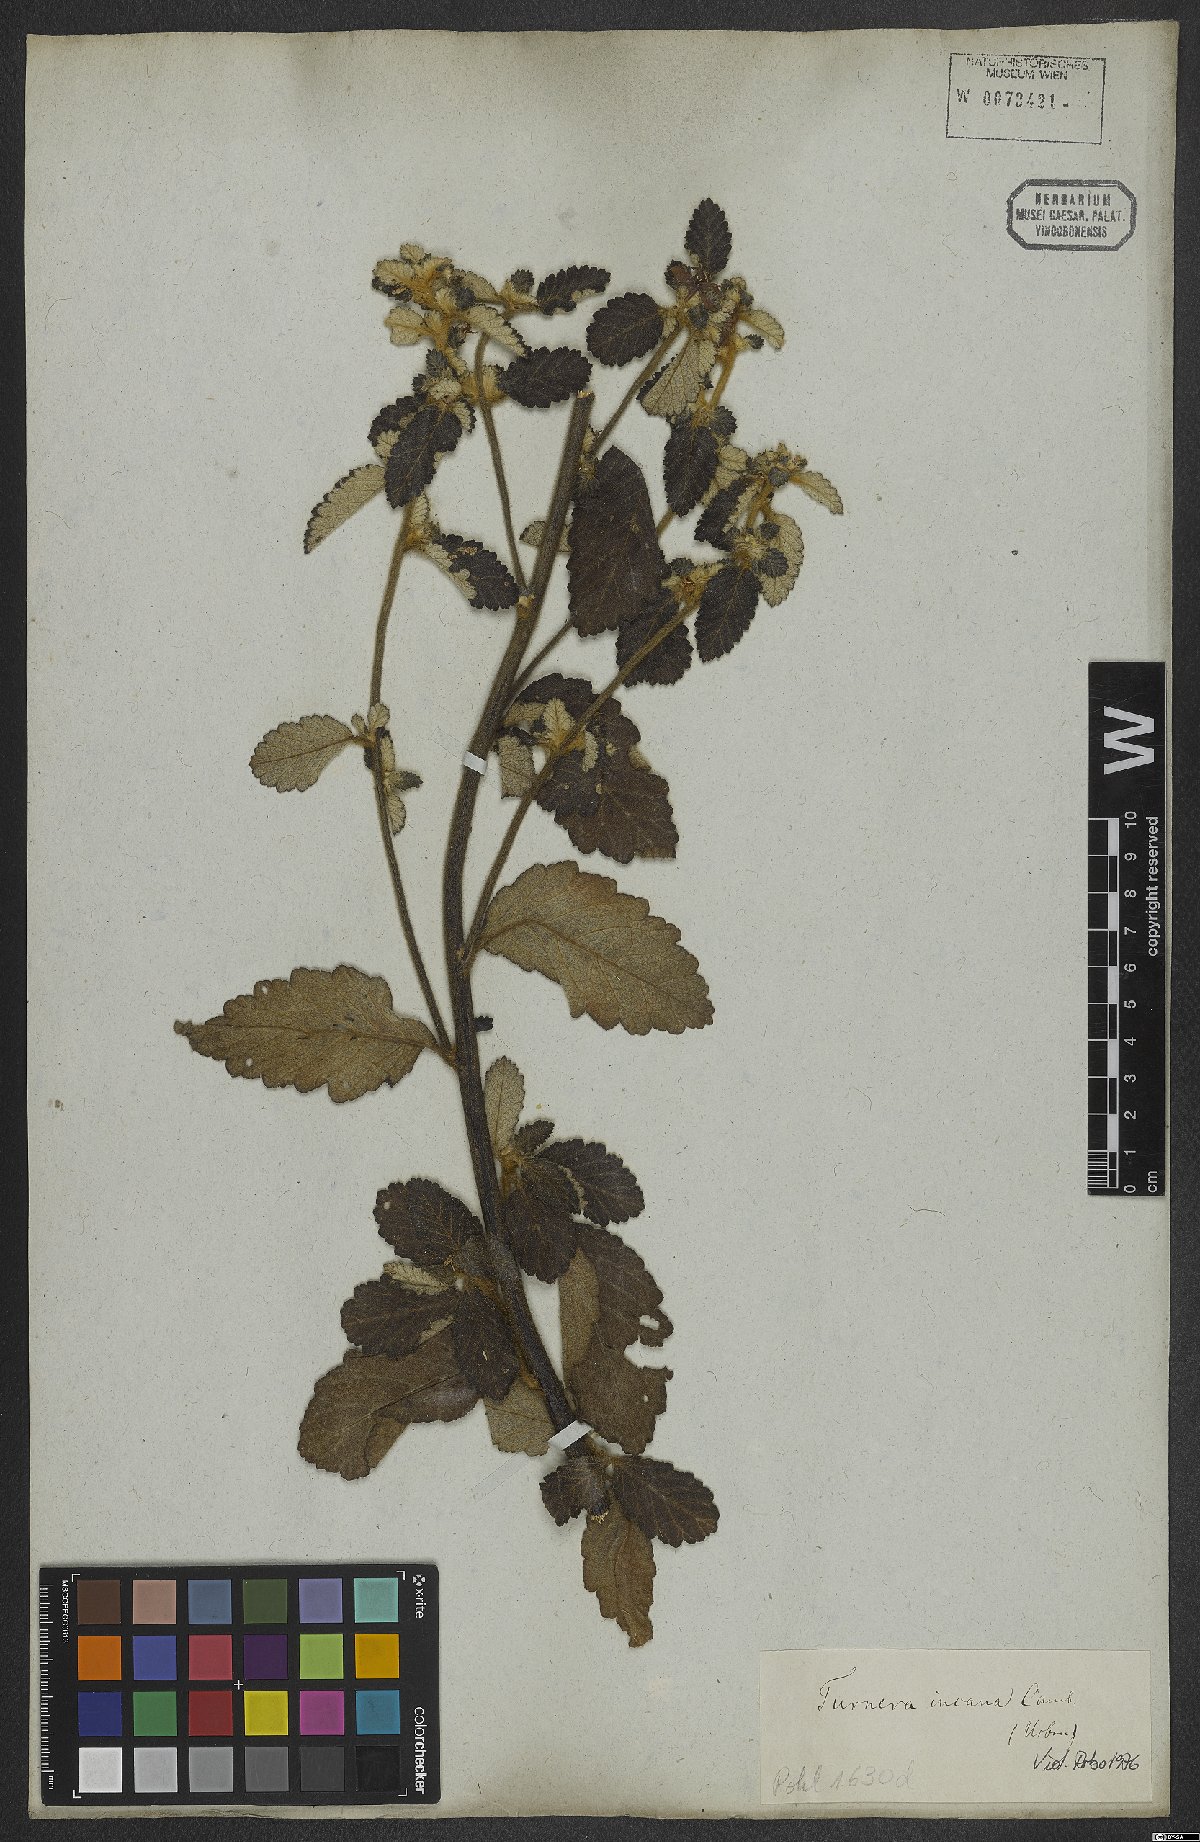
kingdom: Plantae
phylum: Tracheophyta
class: Magnoliopsida
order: Malpighiales
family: Turneraceae
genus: Turnera
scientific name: Turnera incana
